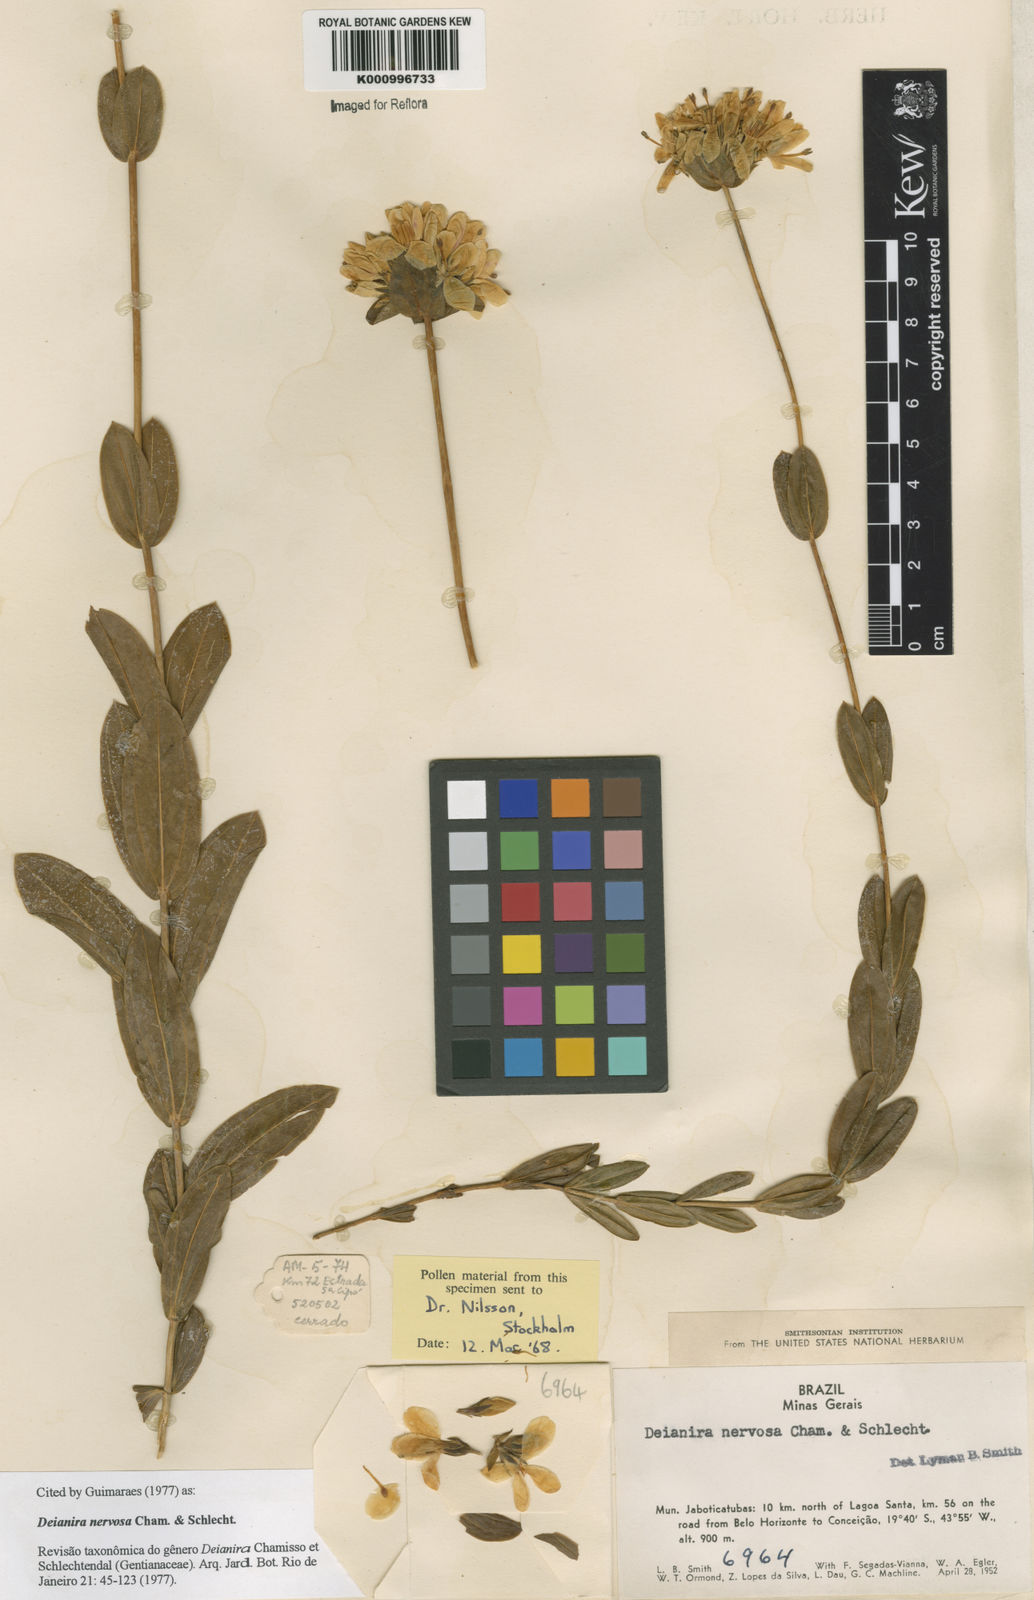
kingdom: Plantae
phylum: Tracheophyta
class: Magnoliopsida
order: Gentianales
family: Gentianaceae
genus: Deianira
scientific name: Deianira nervosa
